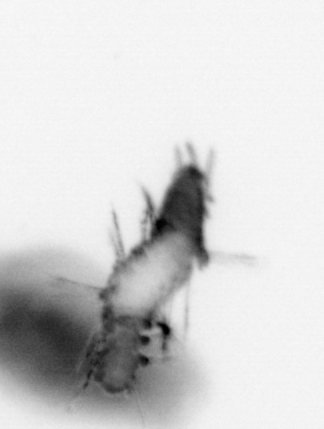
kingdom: Animalia
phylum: Annelida
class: Polychaeta
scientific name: Polychaeta
